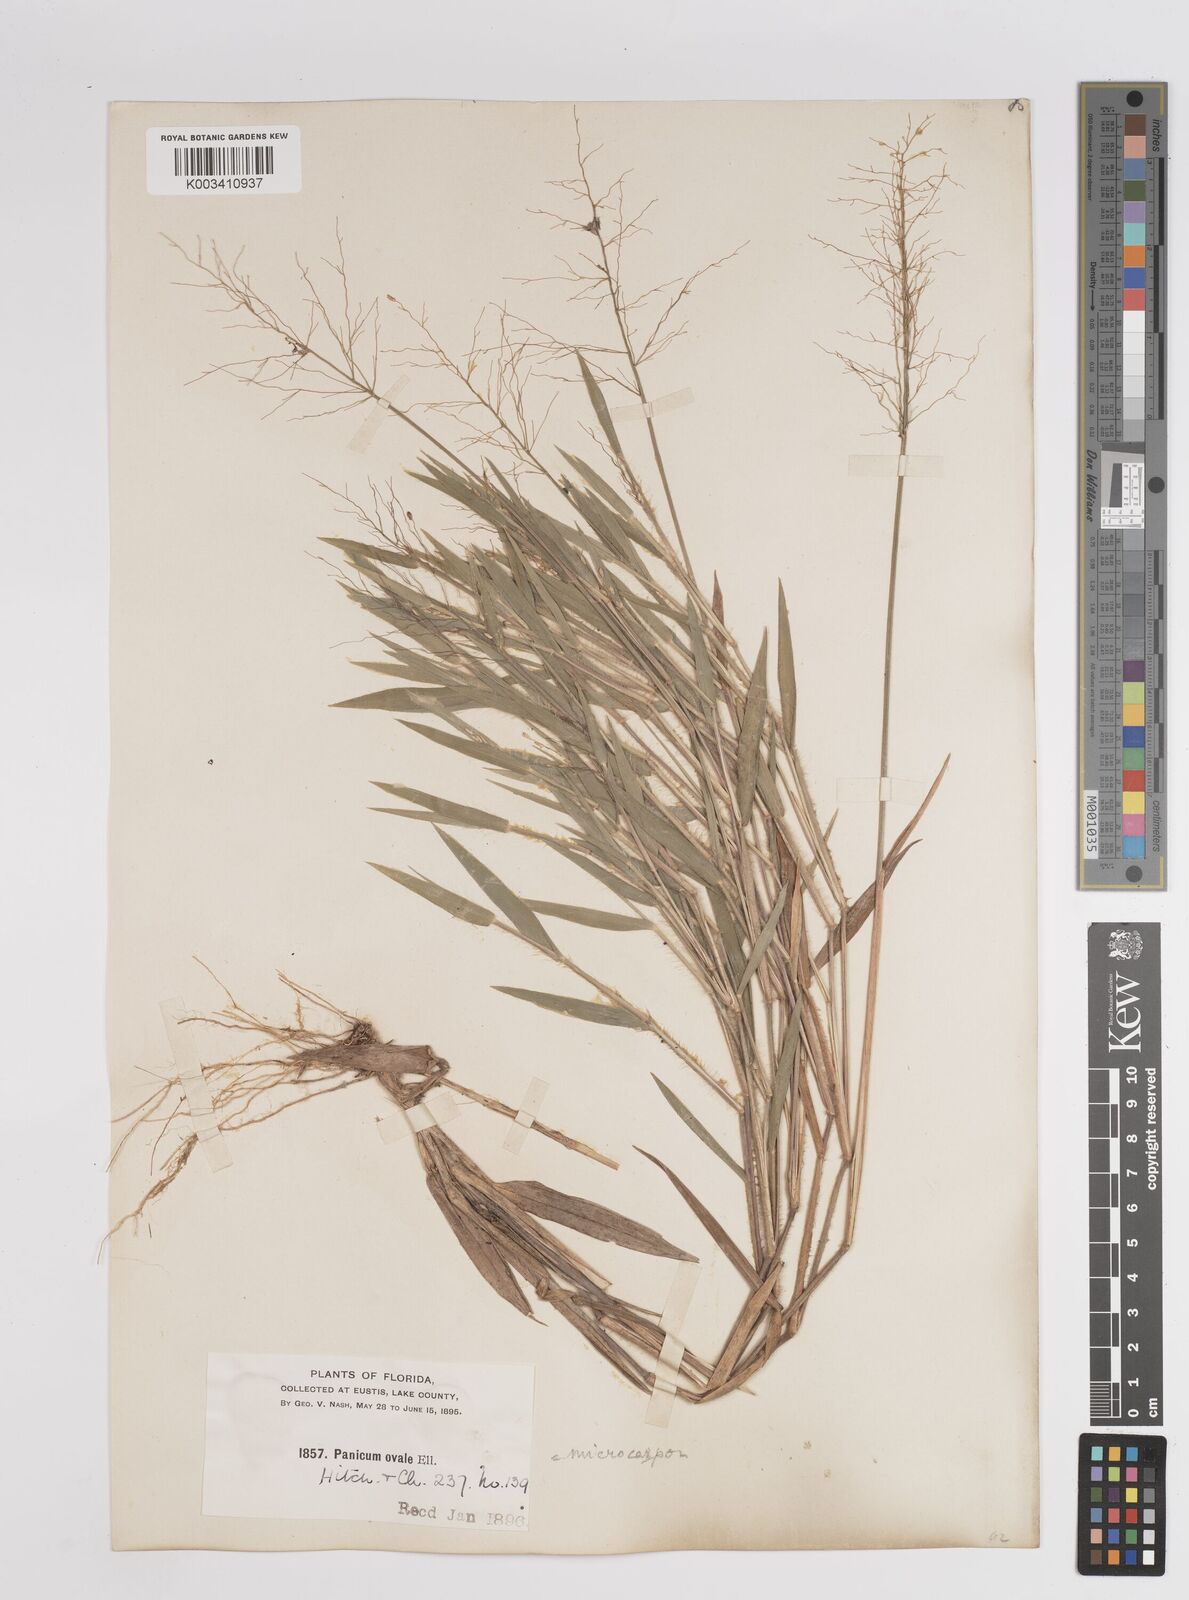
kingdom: Plantae
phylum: Tracheophyta
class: Liliopsida
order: Poales
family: Poaceae
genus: Dichanthelium
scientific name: Dichanthelium ovale
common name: Stiff-leaved panicgrass
